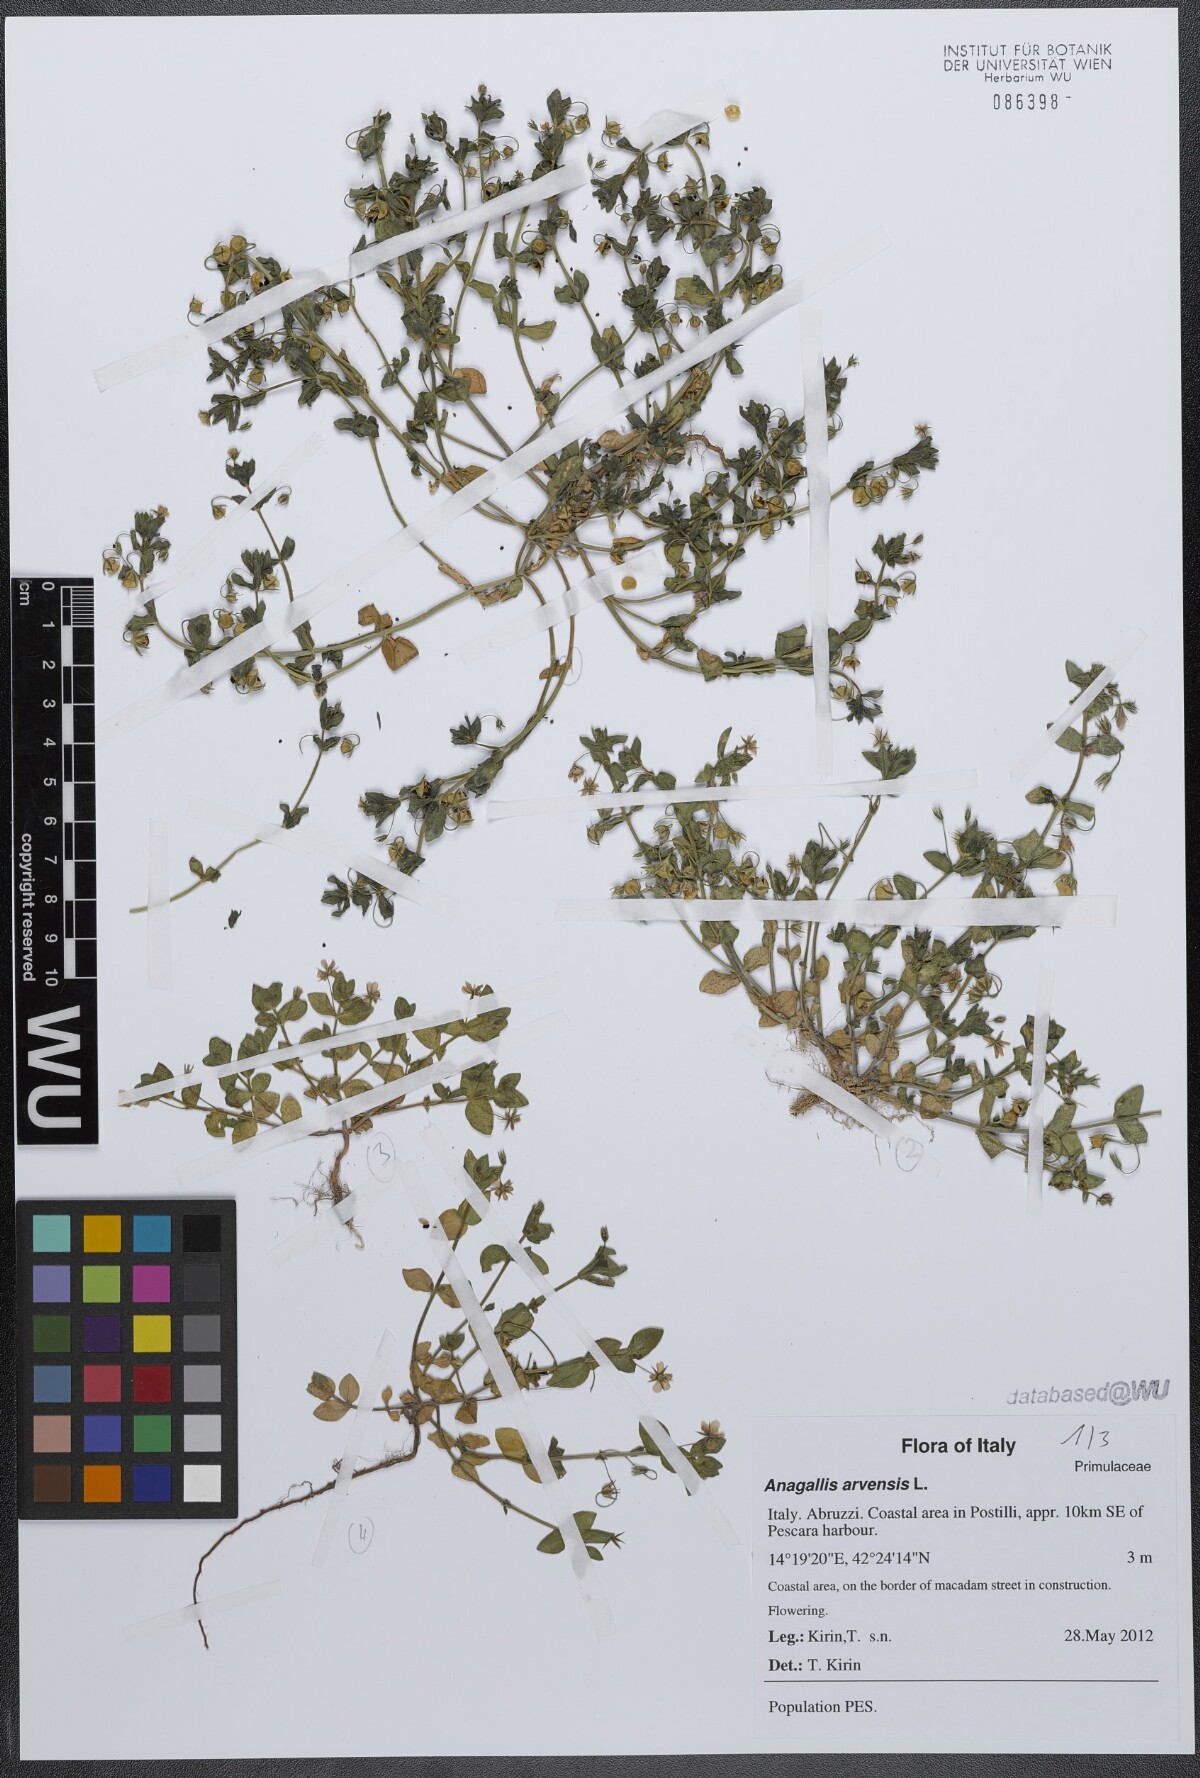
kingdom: Plantae
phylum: Tracheophyta
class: Magnoliopsida
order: Ericales
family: Primulaceae
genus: Lysimachia
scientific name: Lysimachia arvensis
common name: Scarlet pimpernel
